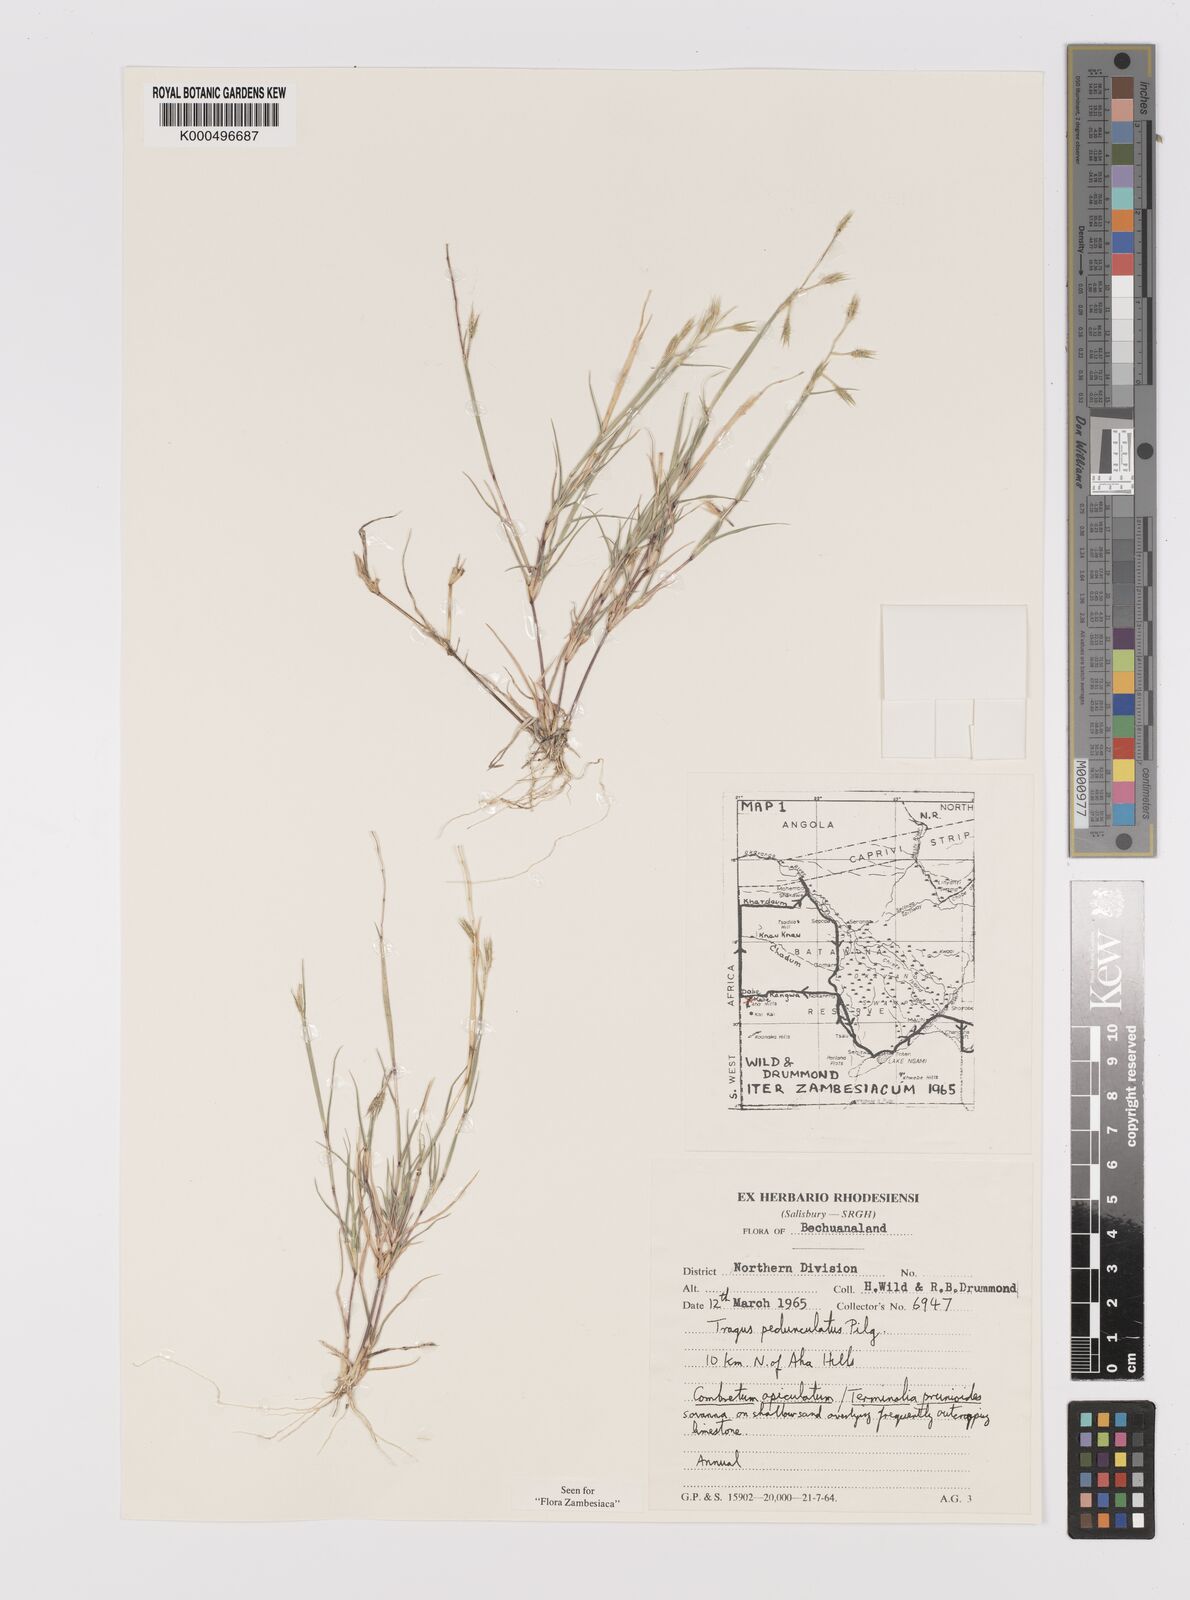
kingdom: Plantae
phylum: Tracheophyta
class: Liliopsida
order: Poales
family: Poaceae
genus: Orthacanthus
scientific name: Orthacanthus pedunculatus
